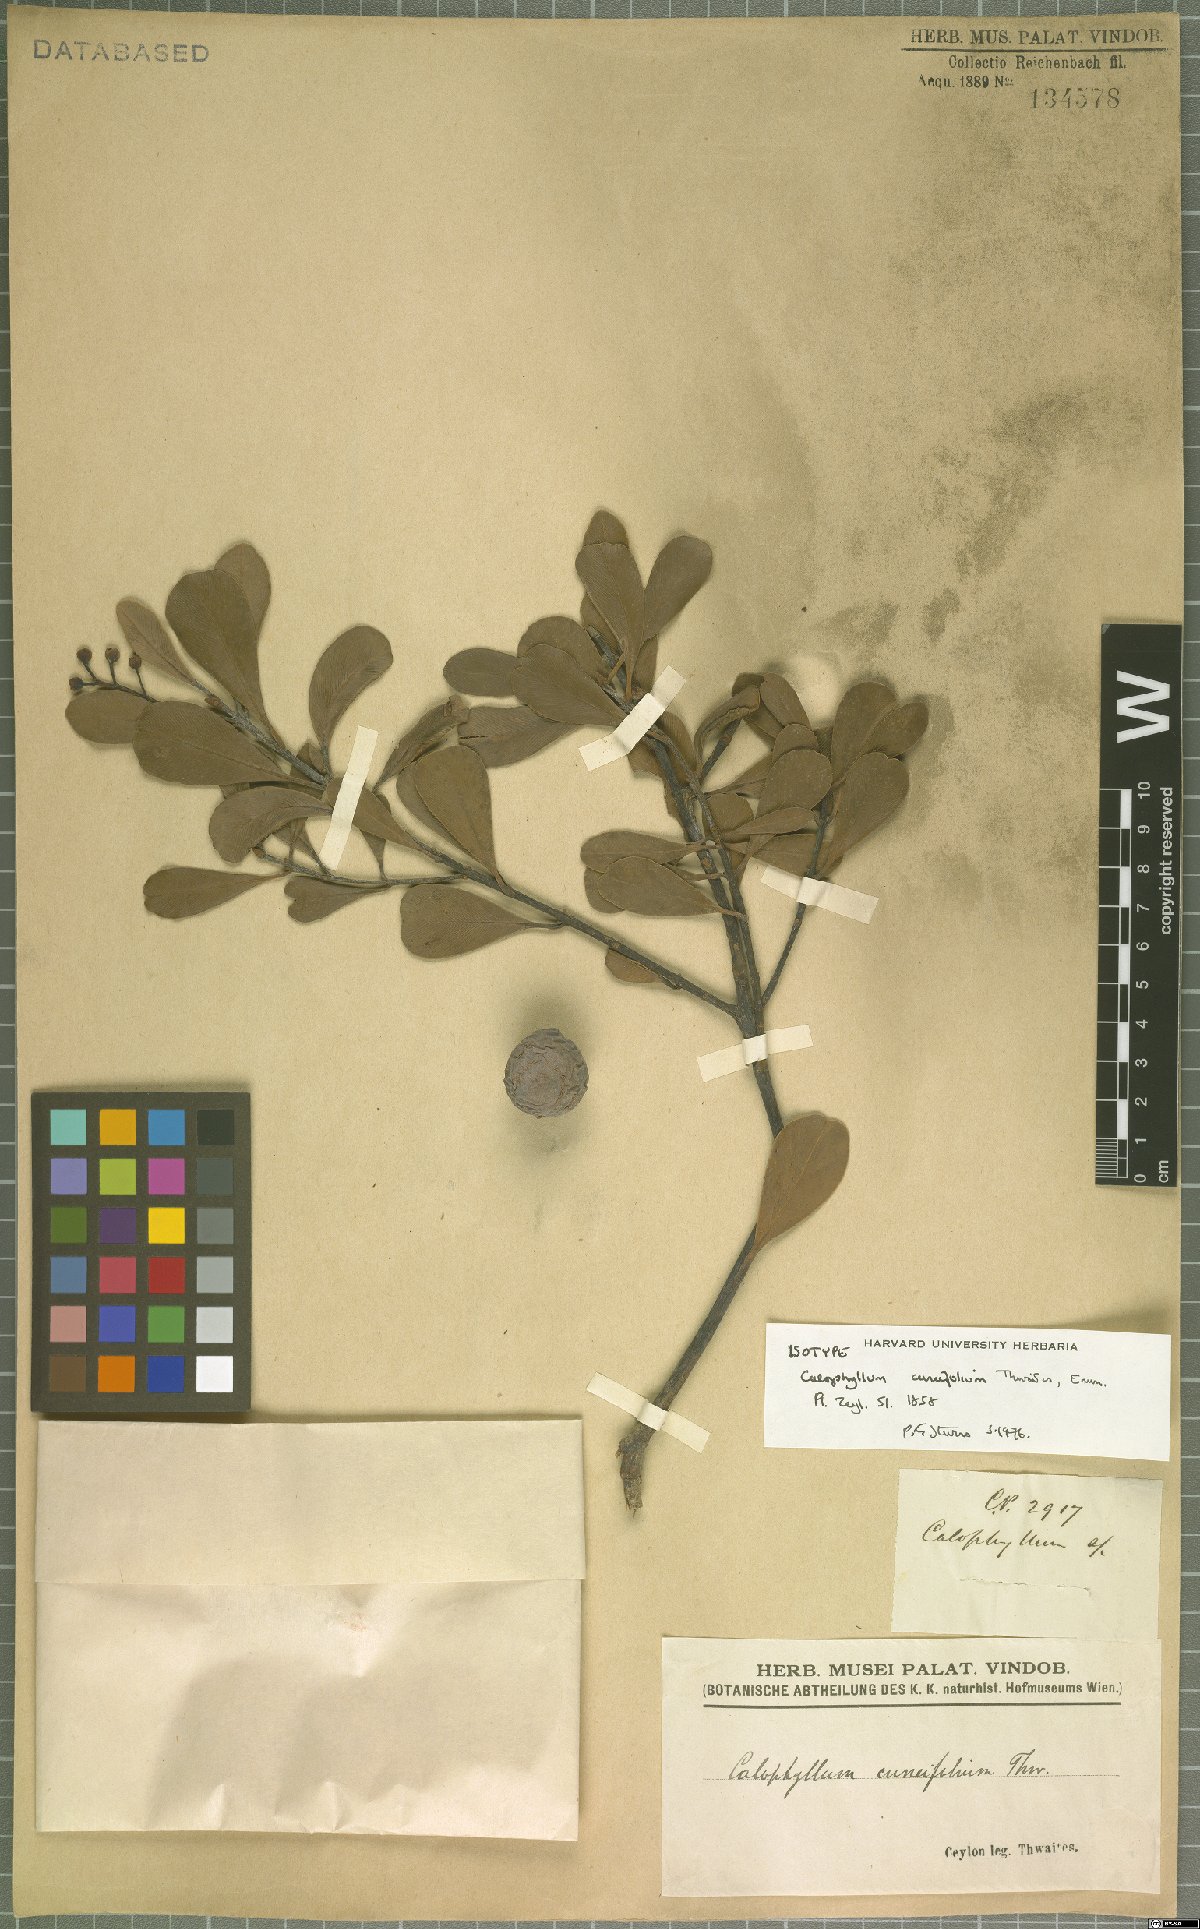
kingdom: Plantae
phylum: Tracheophyta
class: Magnoliopsida
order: Malpighiales
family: Calophyllaceae
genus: Calophyllum
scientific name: Calophyllum cuneifolium
